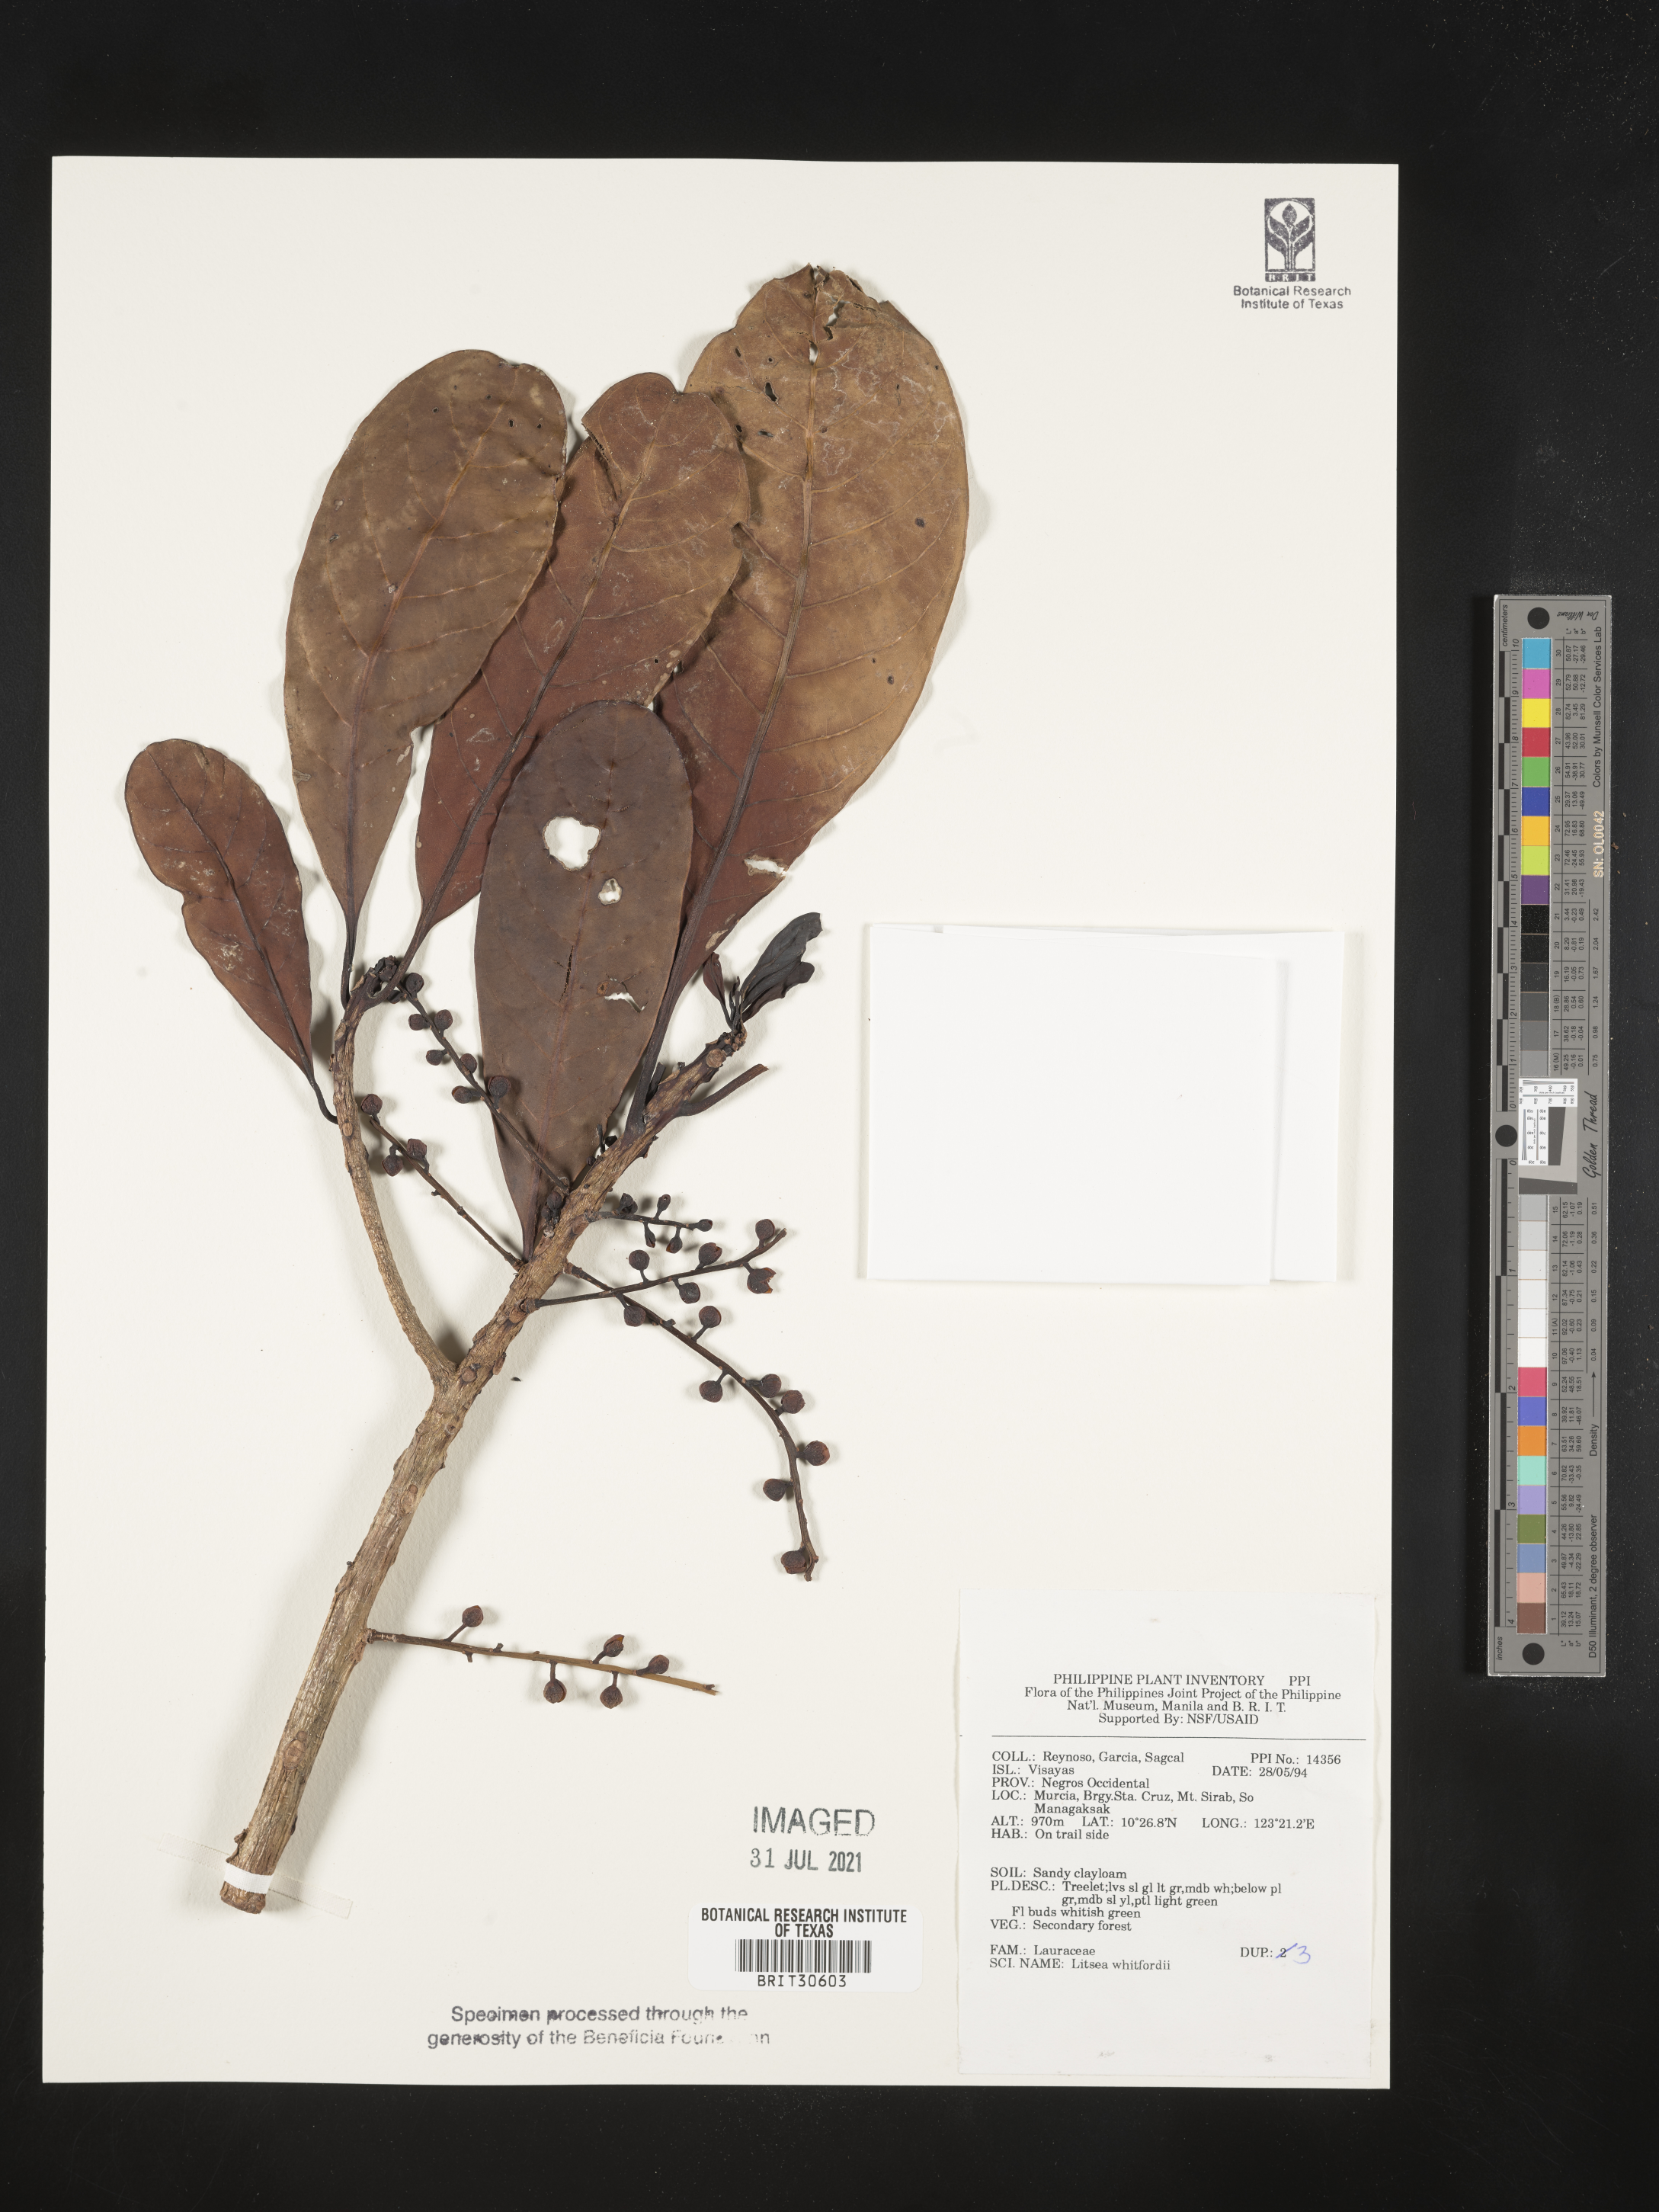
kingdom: Plantae
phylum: Tracheophyta
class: Magnoliopsida
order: Laurales
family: Lauraceae
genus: Litsea
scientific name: Litsea whitfordii
